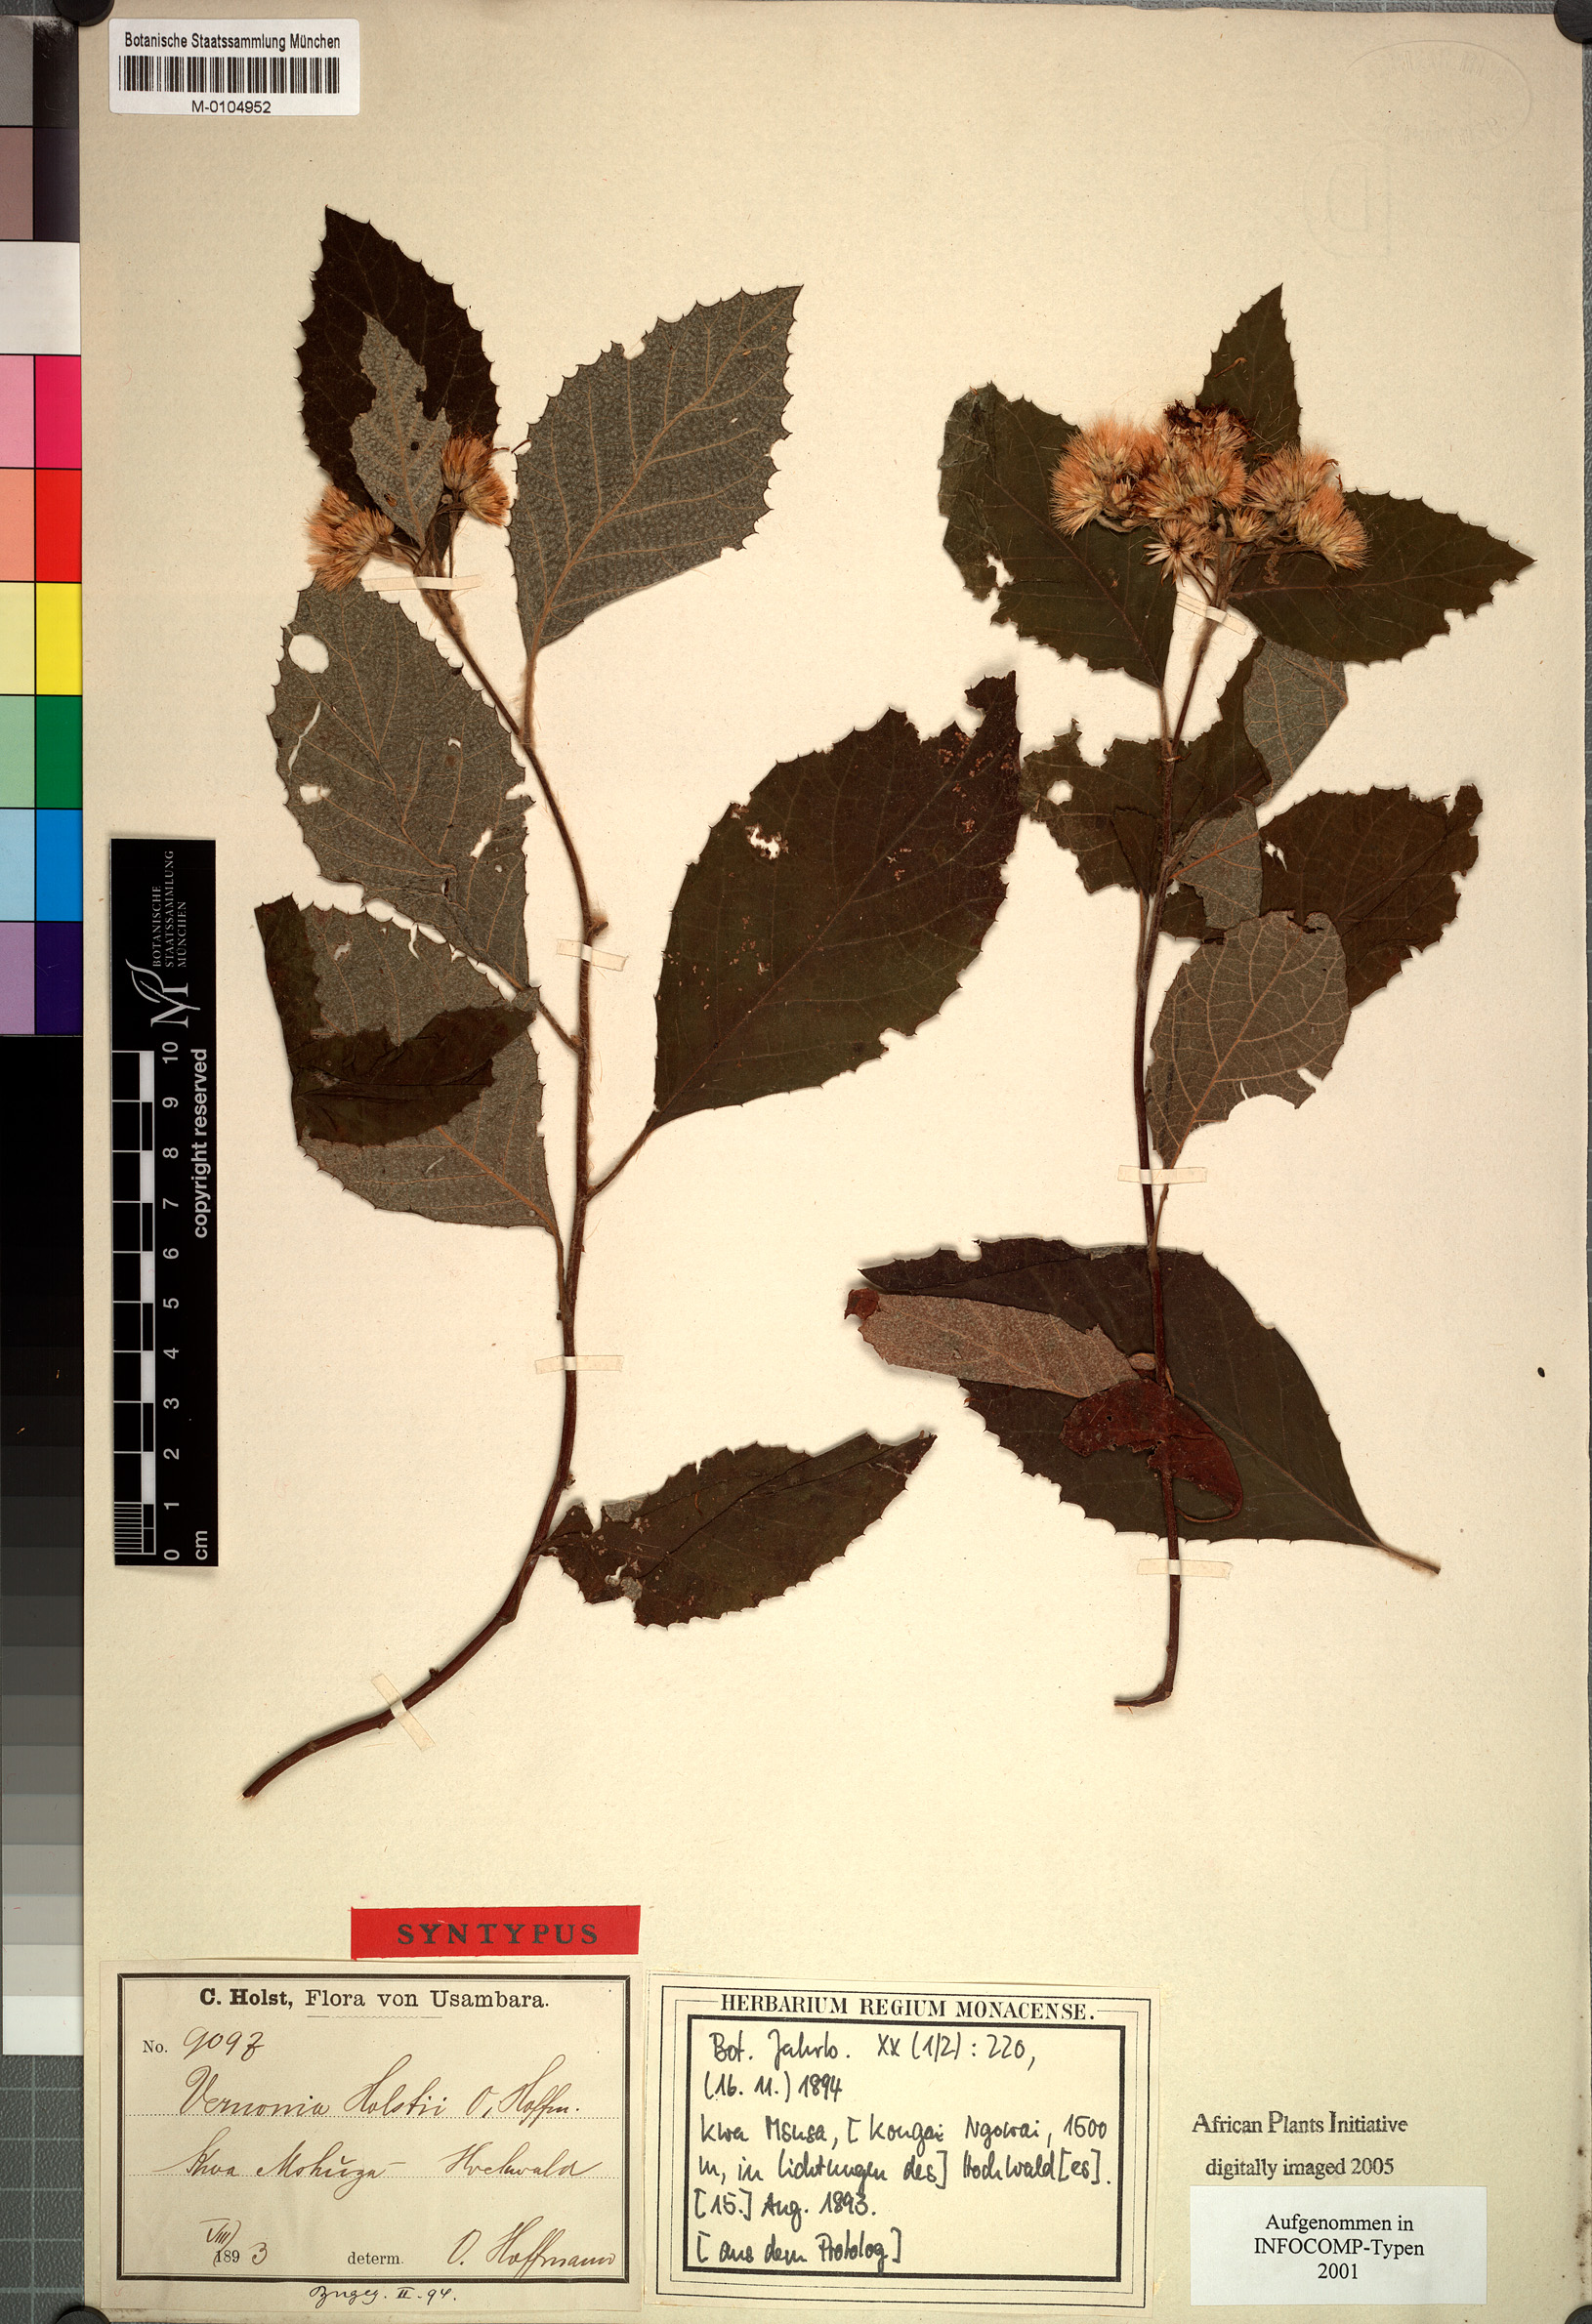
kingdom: Plantae
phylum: Tracheophyta
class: Magnoliopsida
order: Asterales
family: Asteraceae
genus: Vernonia
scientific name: Vernonia holstii
